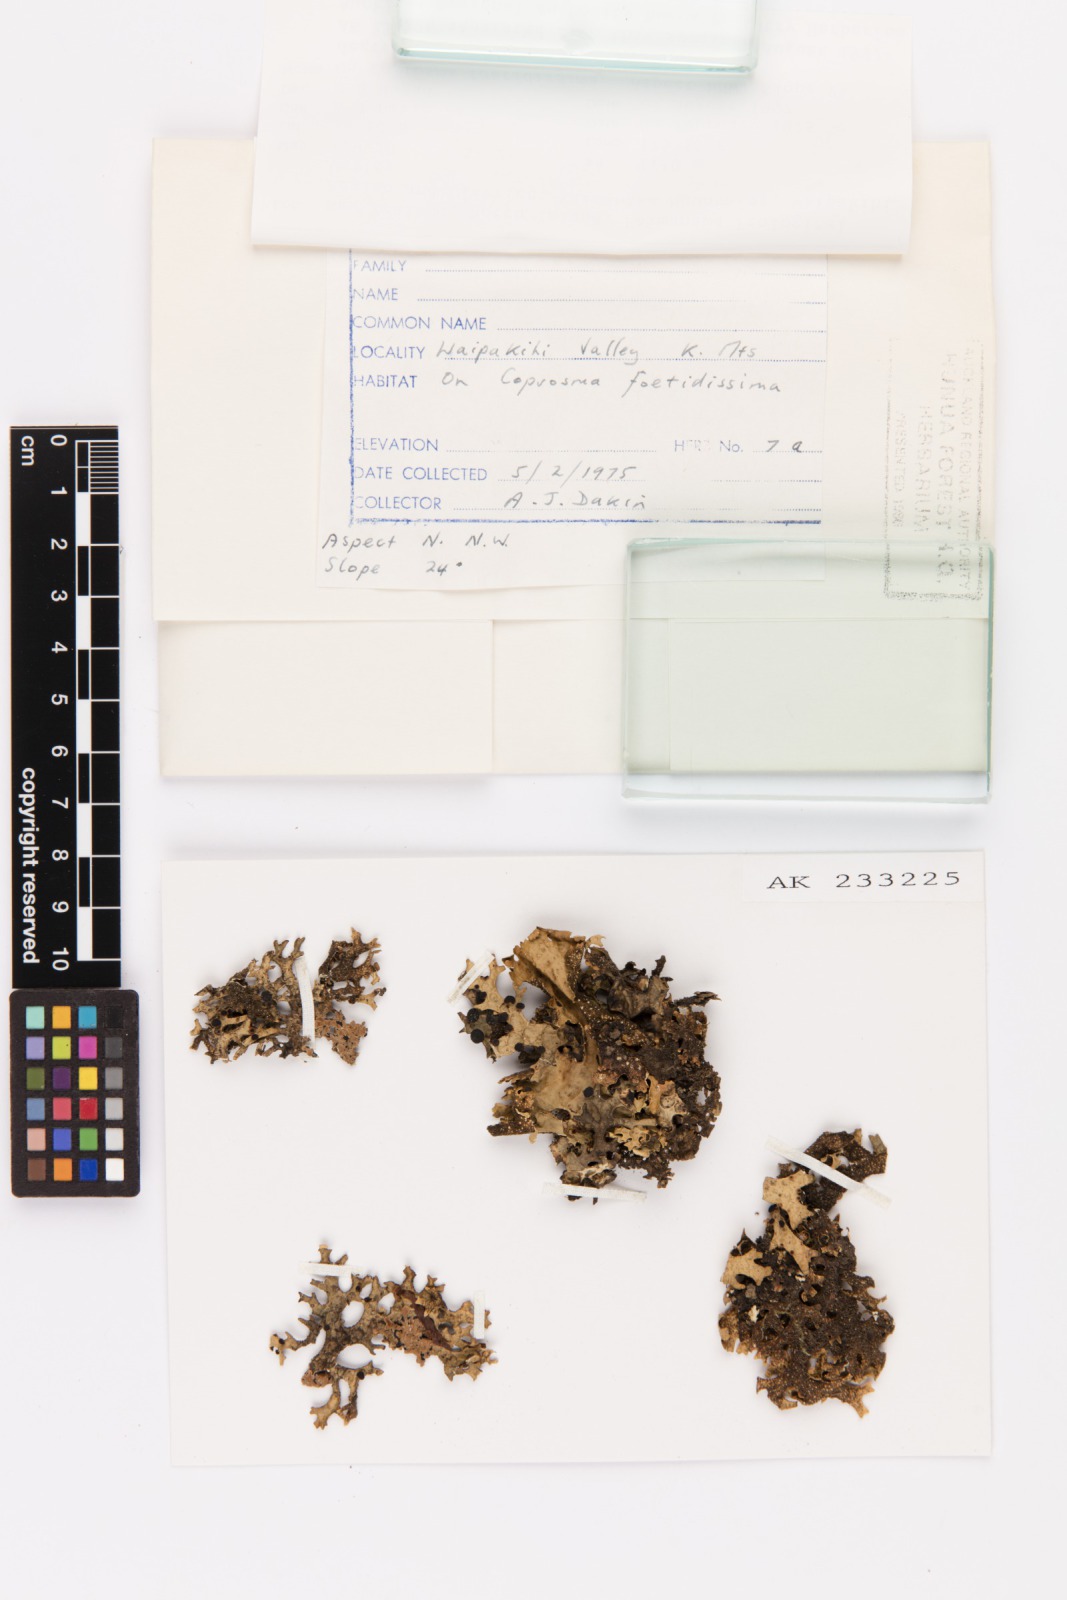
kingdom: Fungi
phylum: Ascomycota
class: Lecanoromycetes
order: Peltigerales
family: Lobariaceae
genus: Pseudocyphellaria
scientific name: Pseudocyphellaria billardierei
